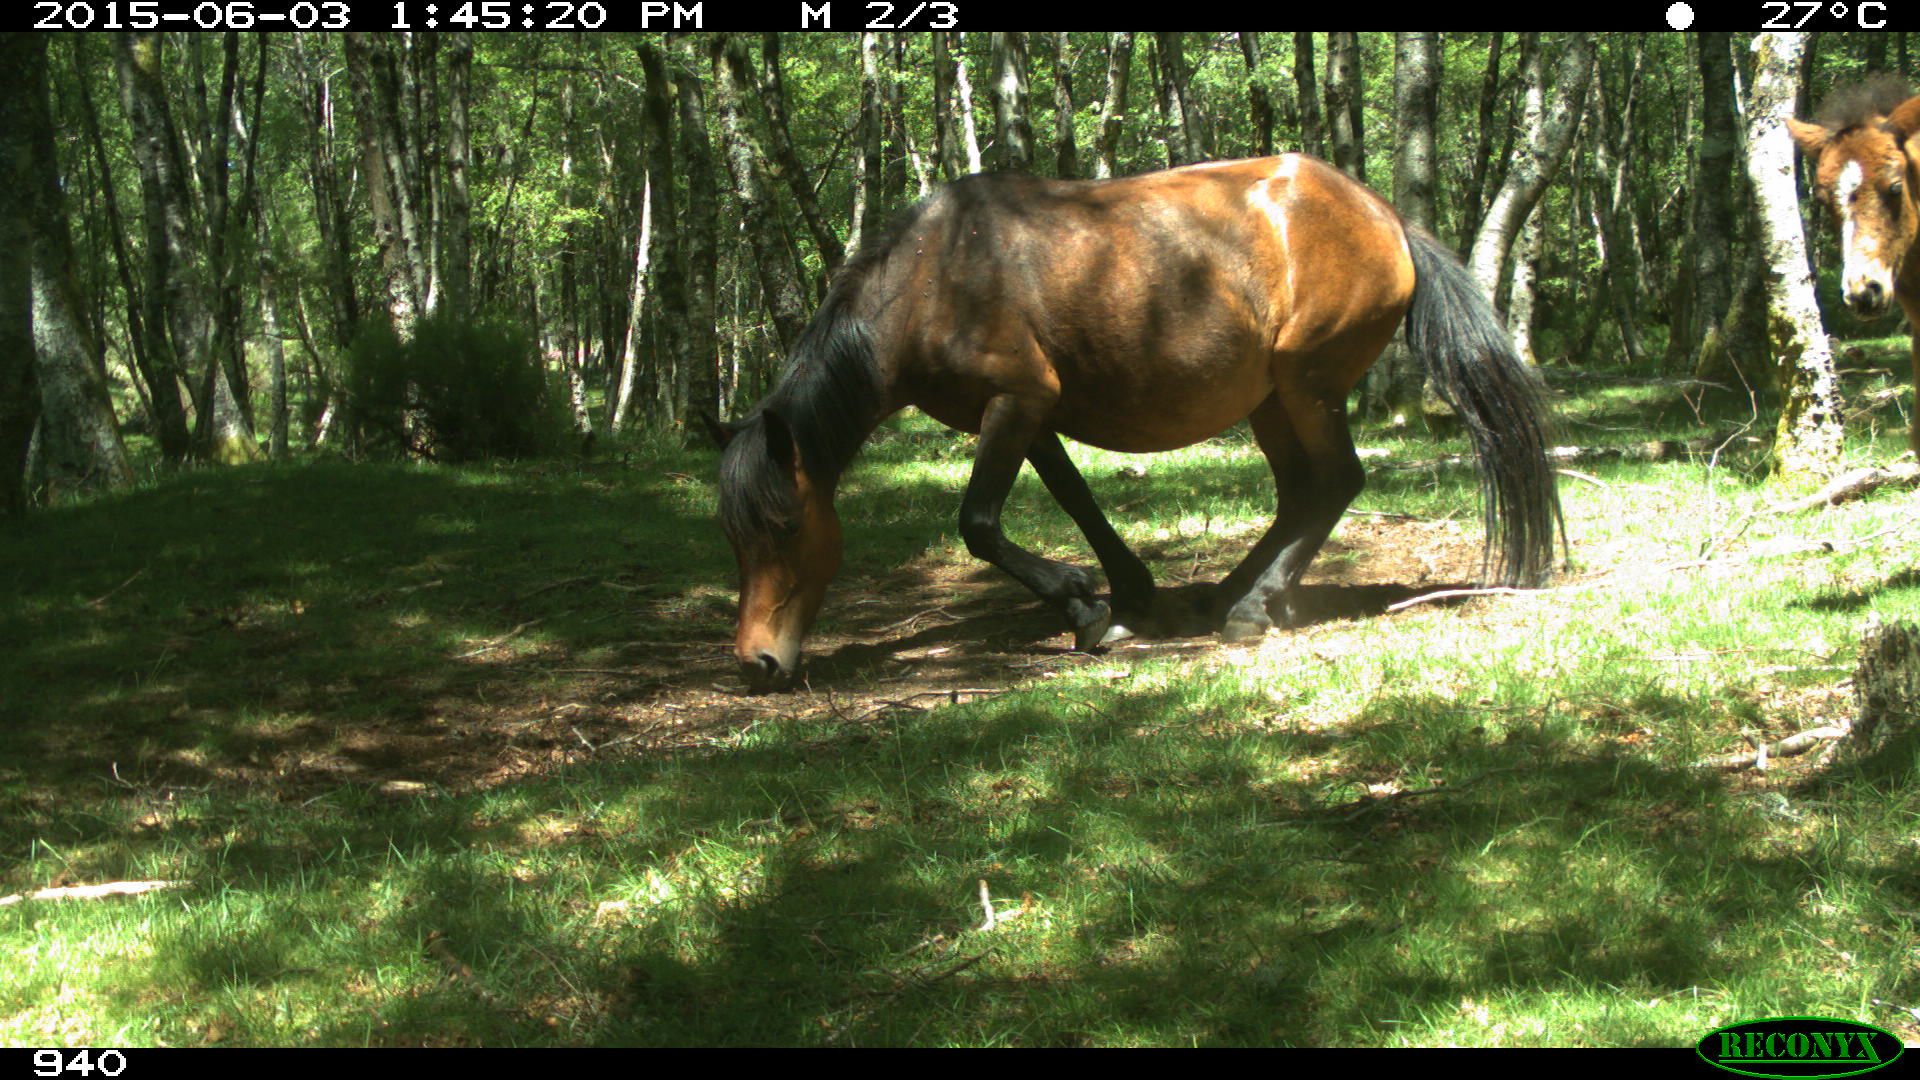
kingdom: Animalia
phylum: Chordata
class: Mammalia
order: Perissodactyla
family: Equidae
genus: Equus
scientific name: Equus caballus
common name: Horse
